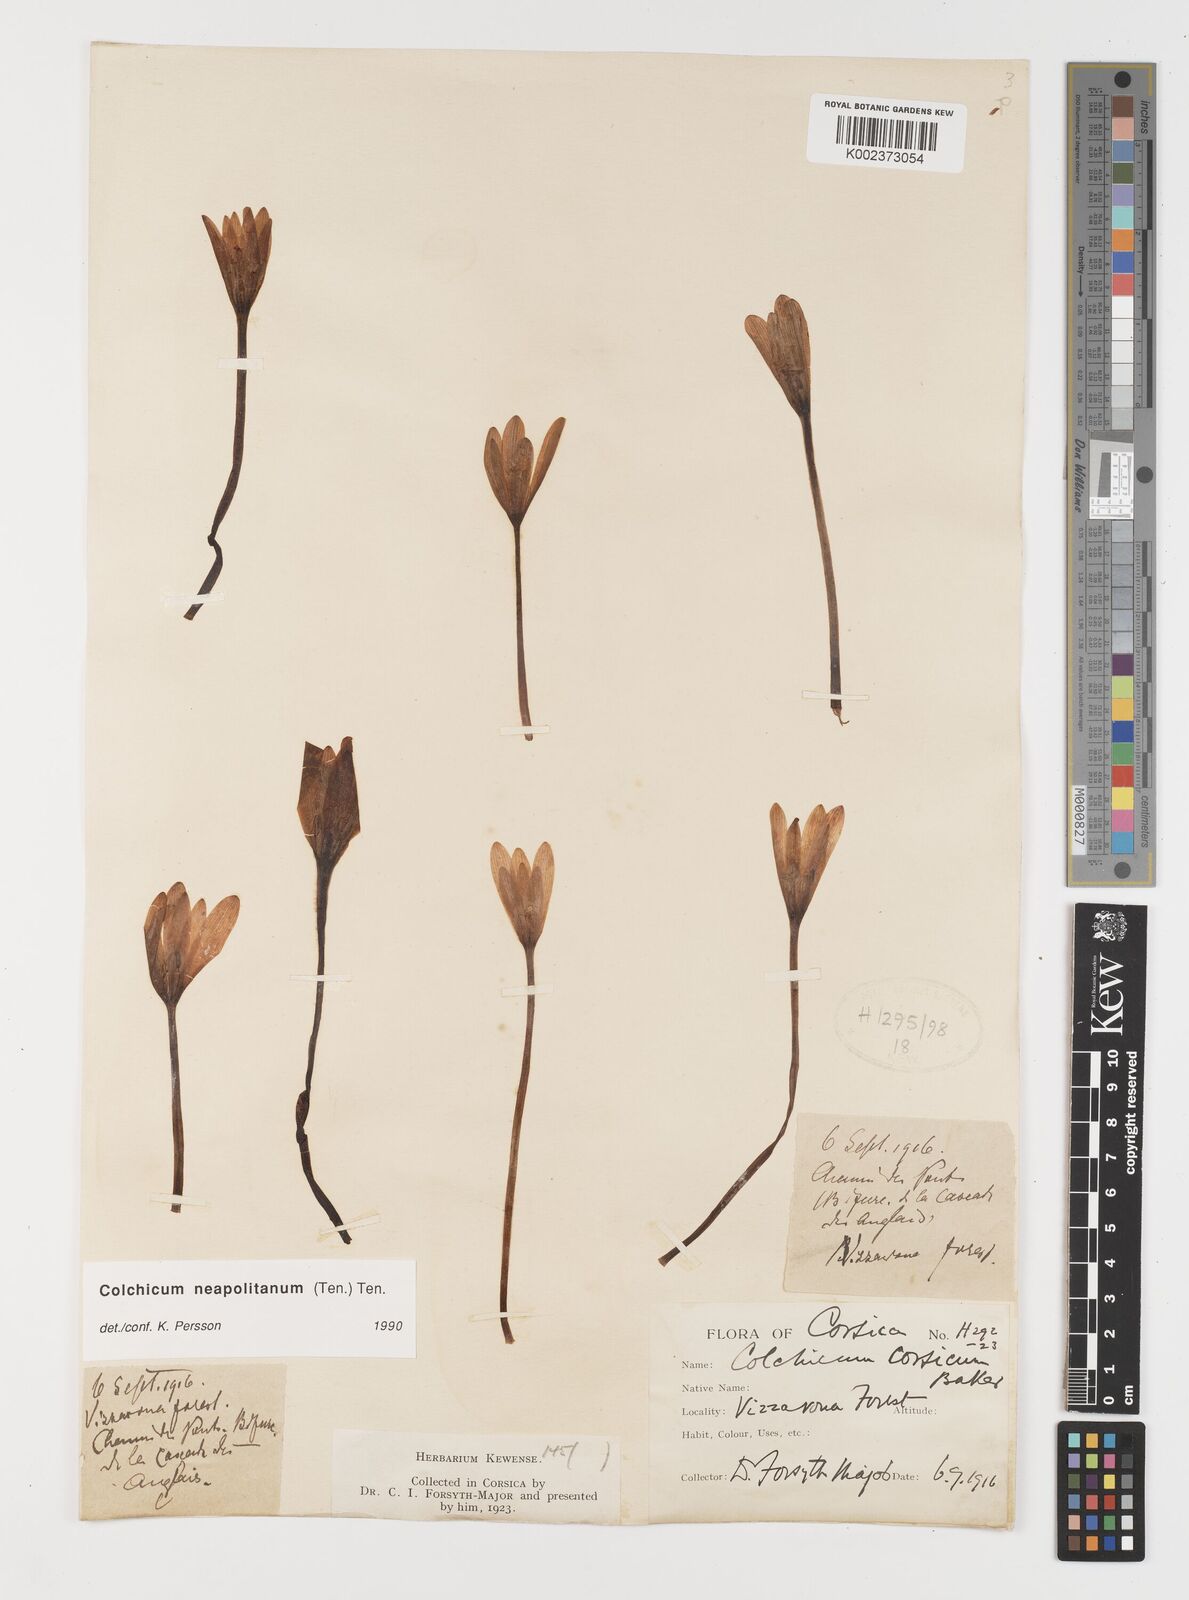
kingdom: Plantae
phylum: Tracheophyta
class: Liliopsida
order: Liliales
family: Colchicaceae
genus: Colchicum
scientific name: Colchicum neapolitanum
